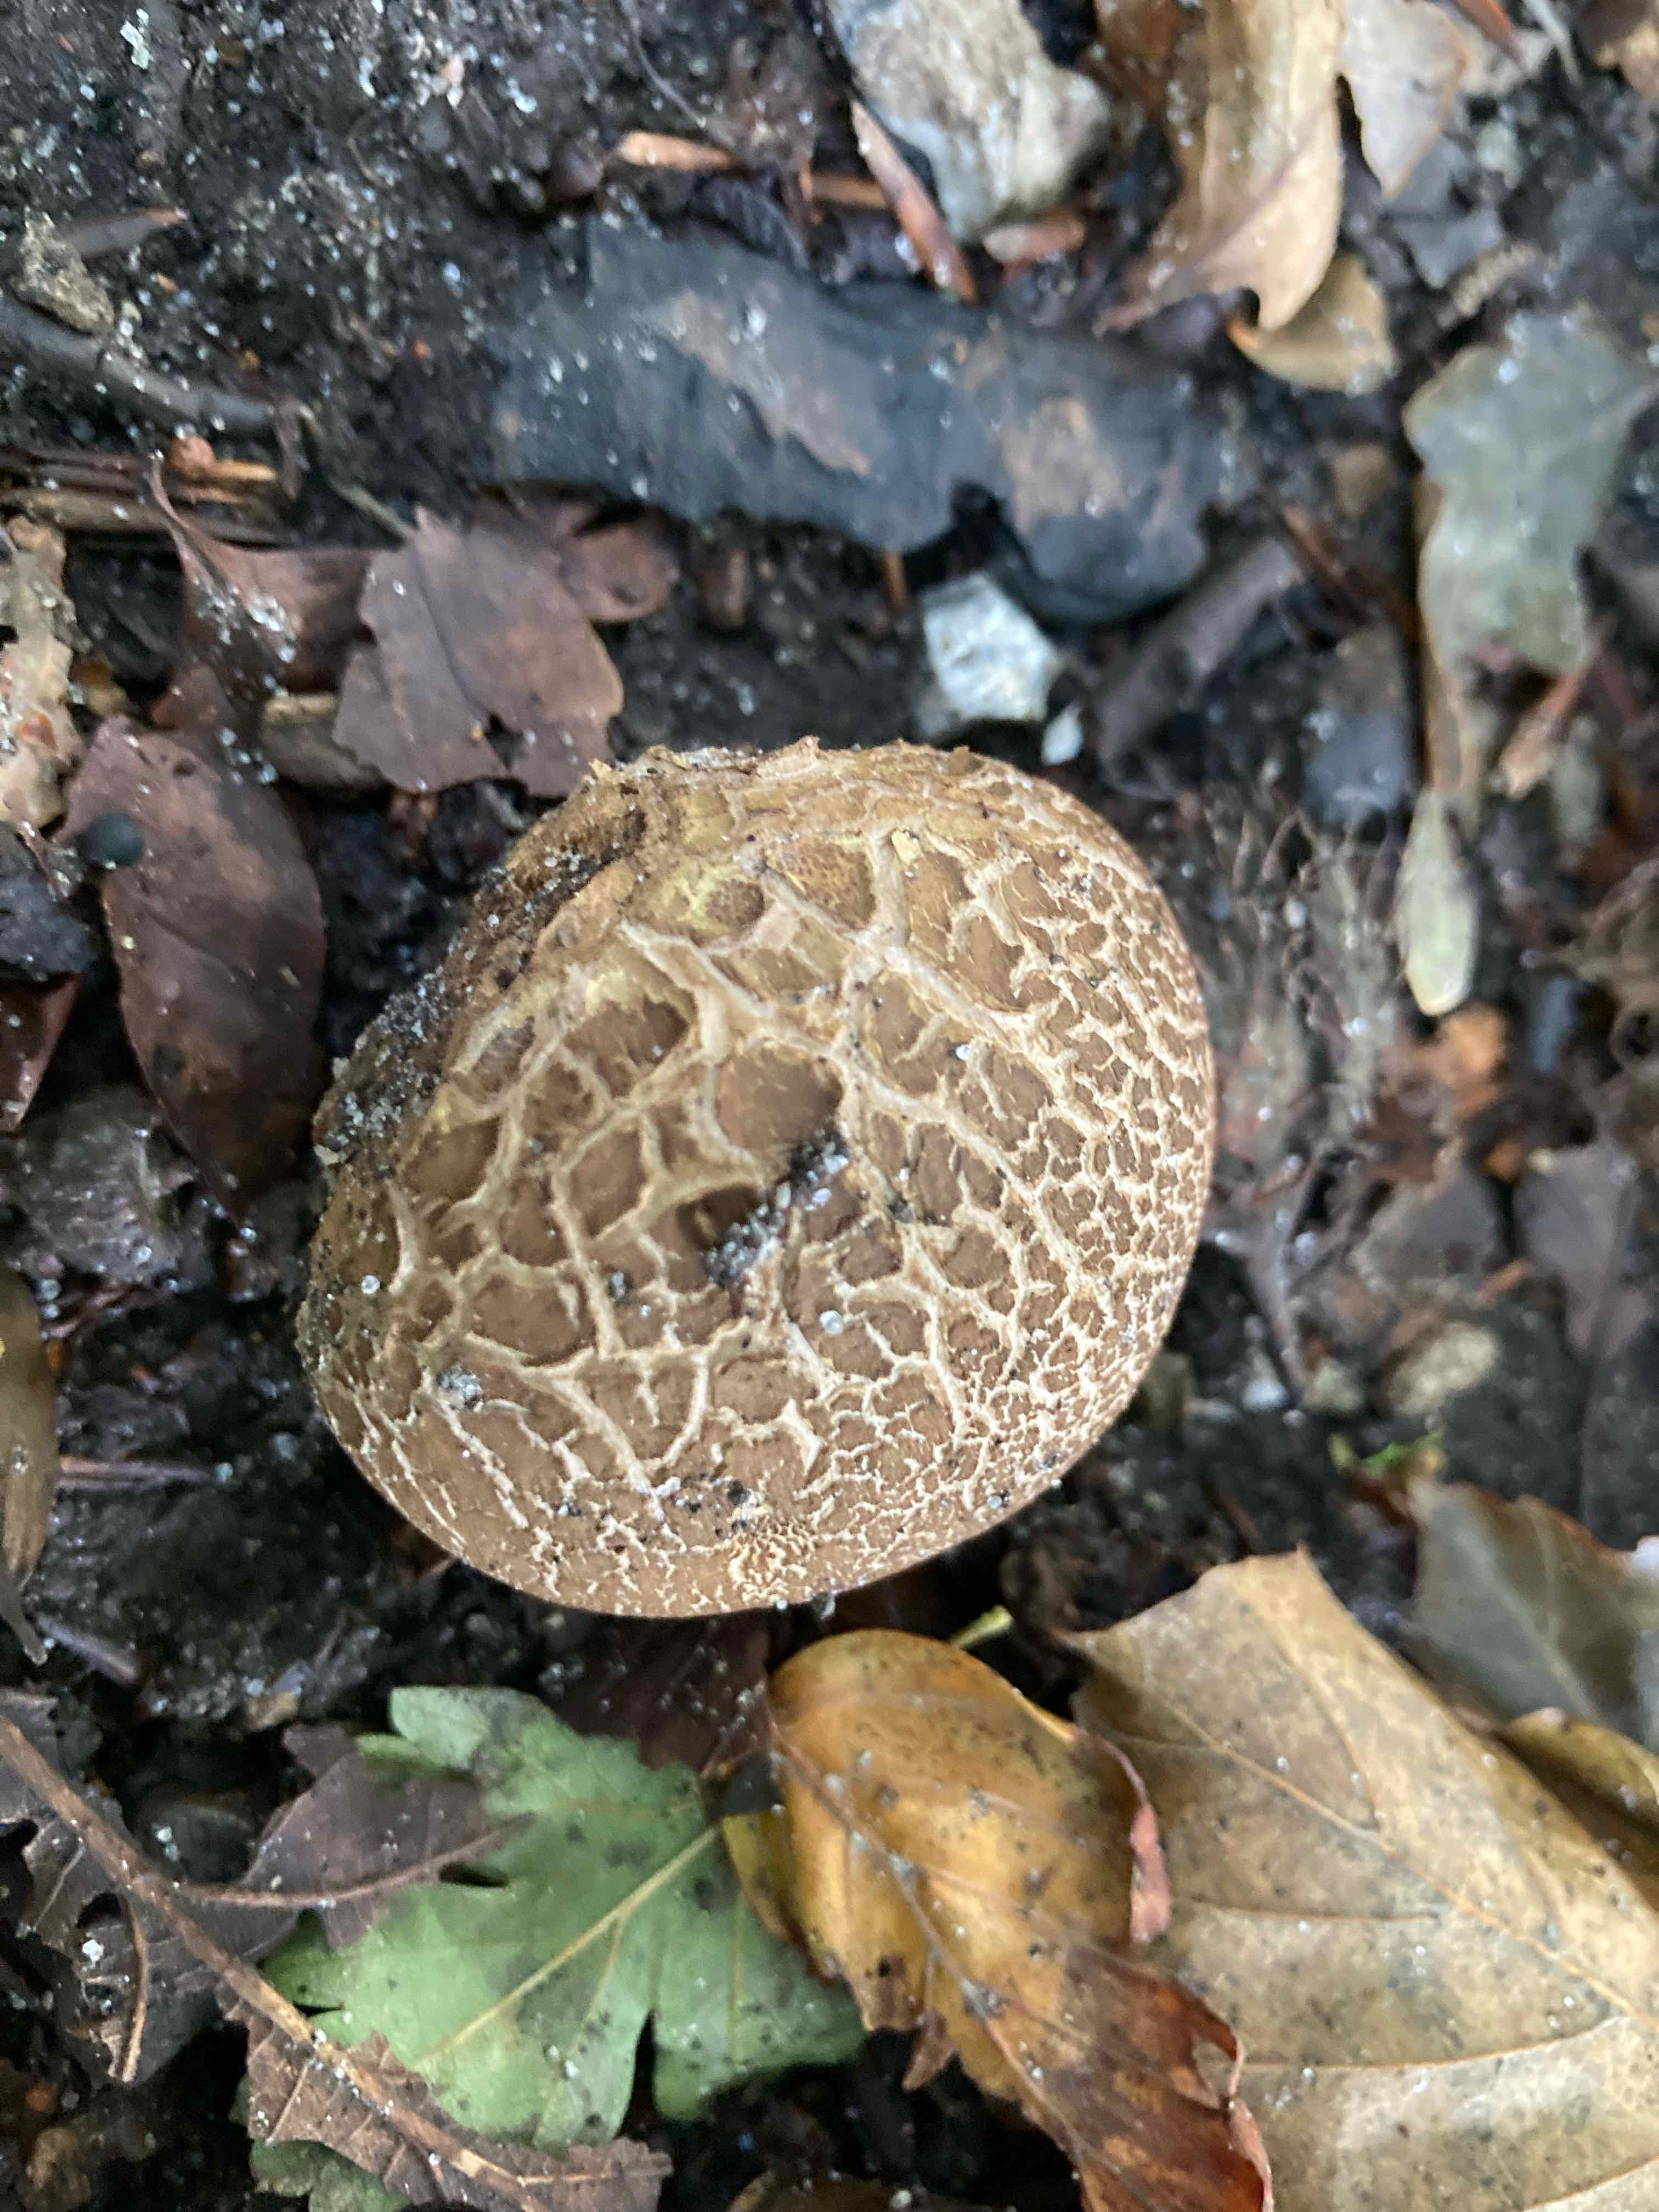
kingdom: Fungi
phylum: Basidiomycota
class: Agaricomycetes
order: Boletales
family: Sclerodermataceae
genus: Scleroderma
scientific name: Scleroderma
